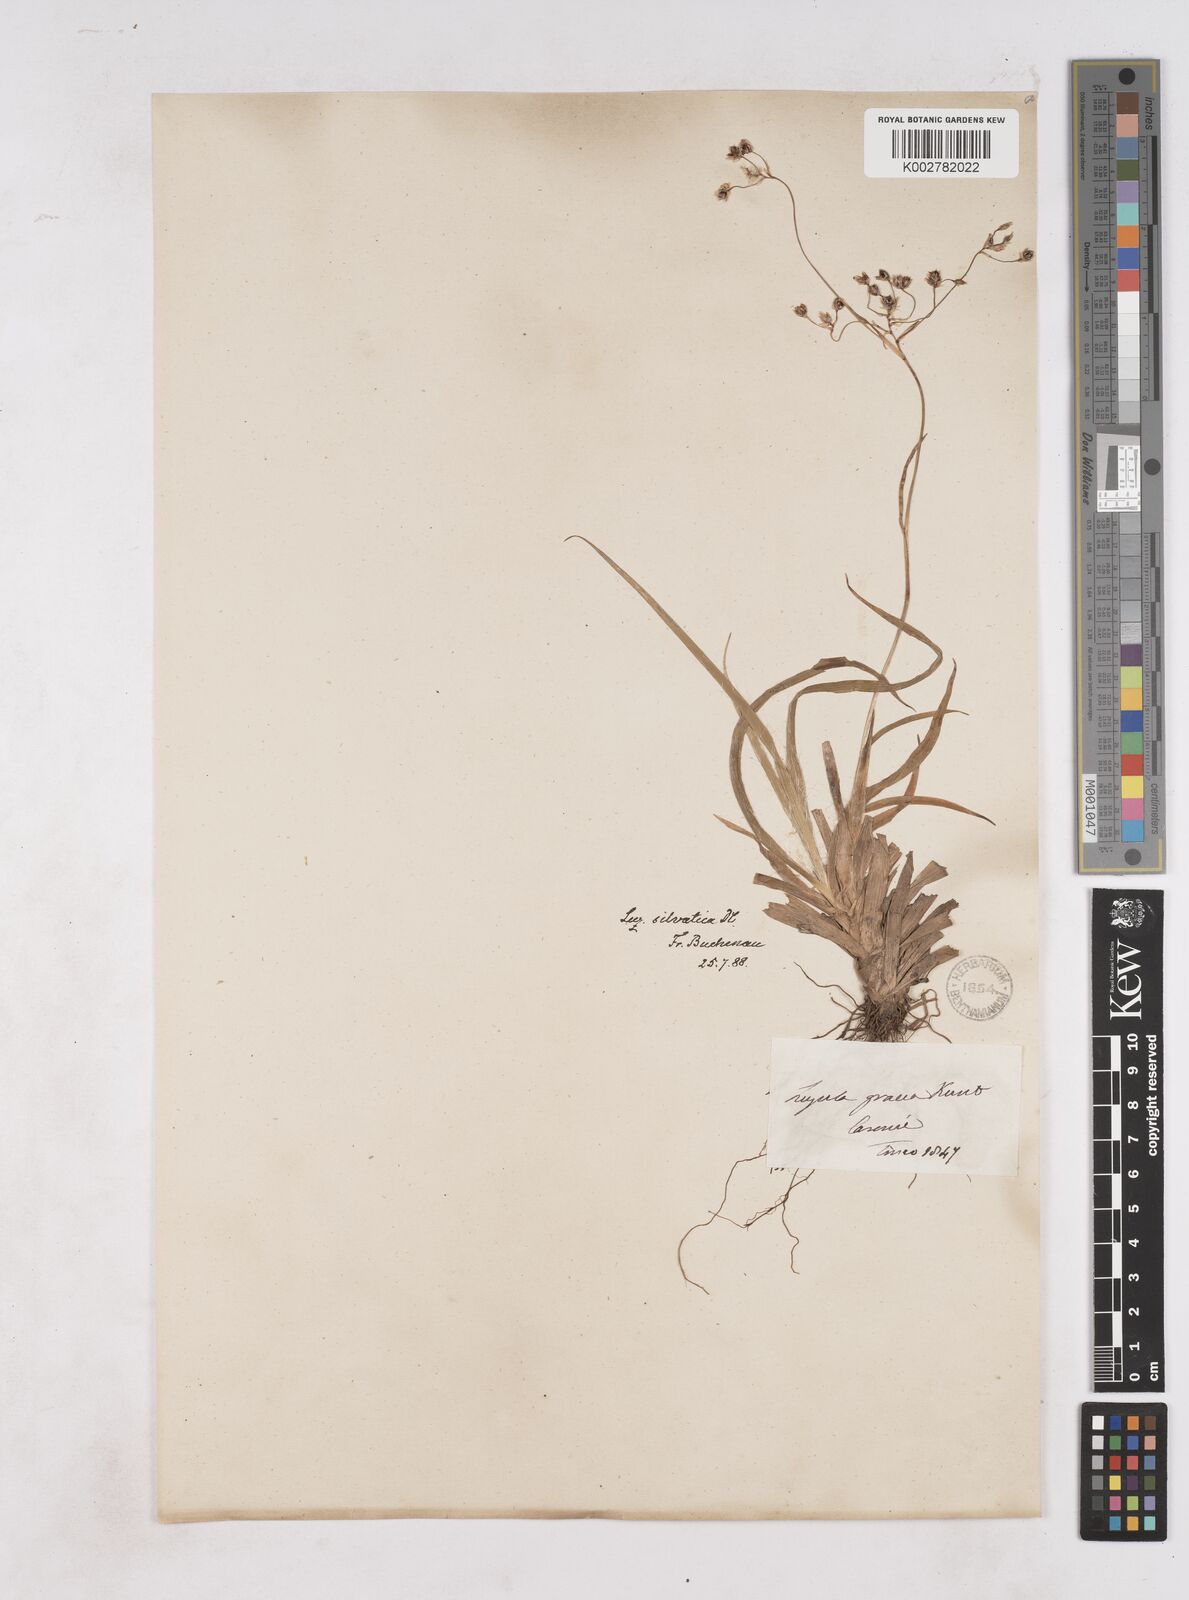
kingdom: Plantae
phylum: Tracheophyta
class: Liliopsida
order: Poales
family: Juncaceae
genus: Luzula
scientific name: Luzula sylvatica
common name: Great wood-rush
